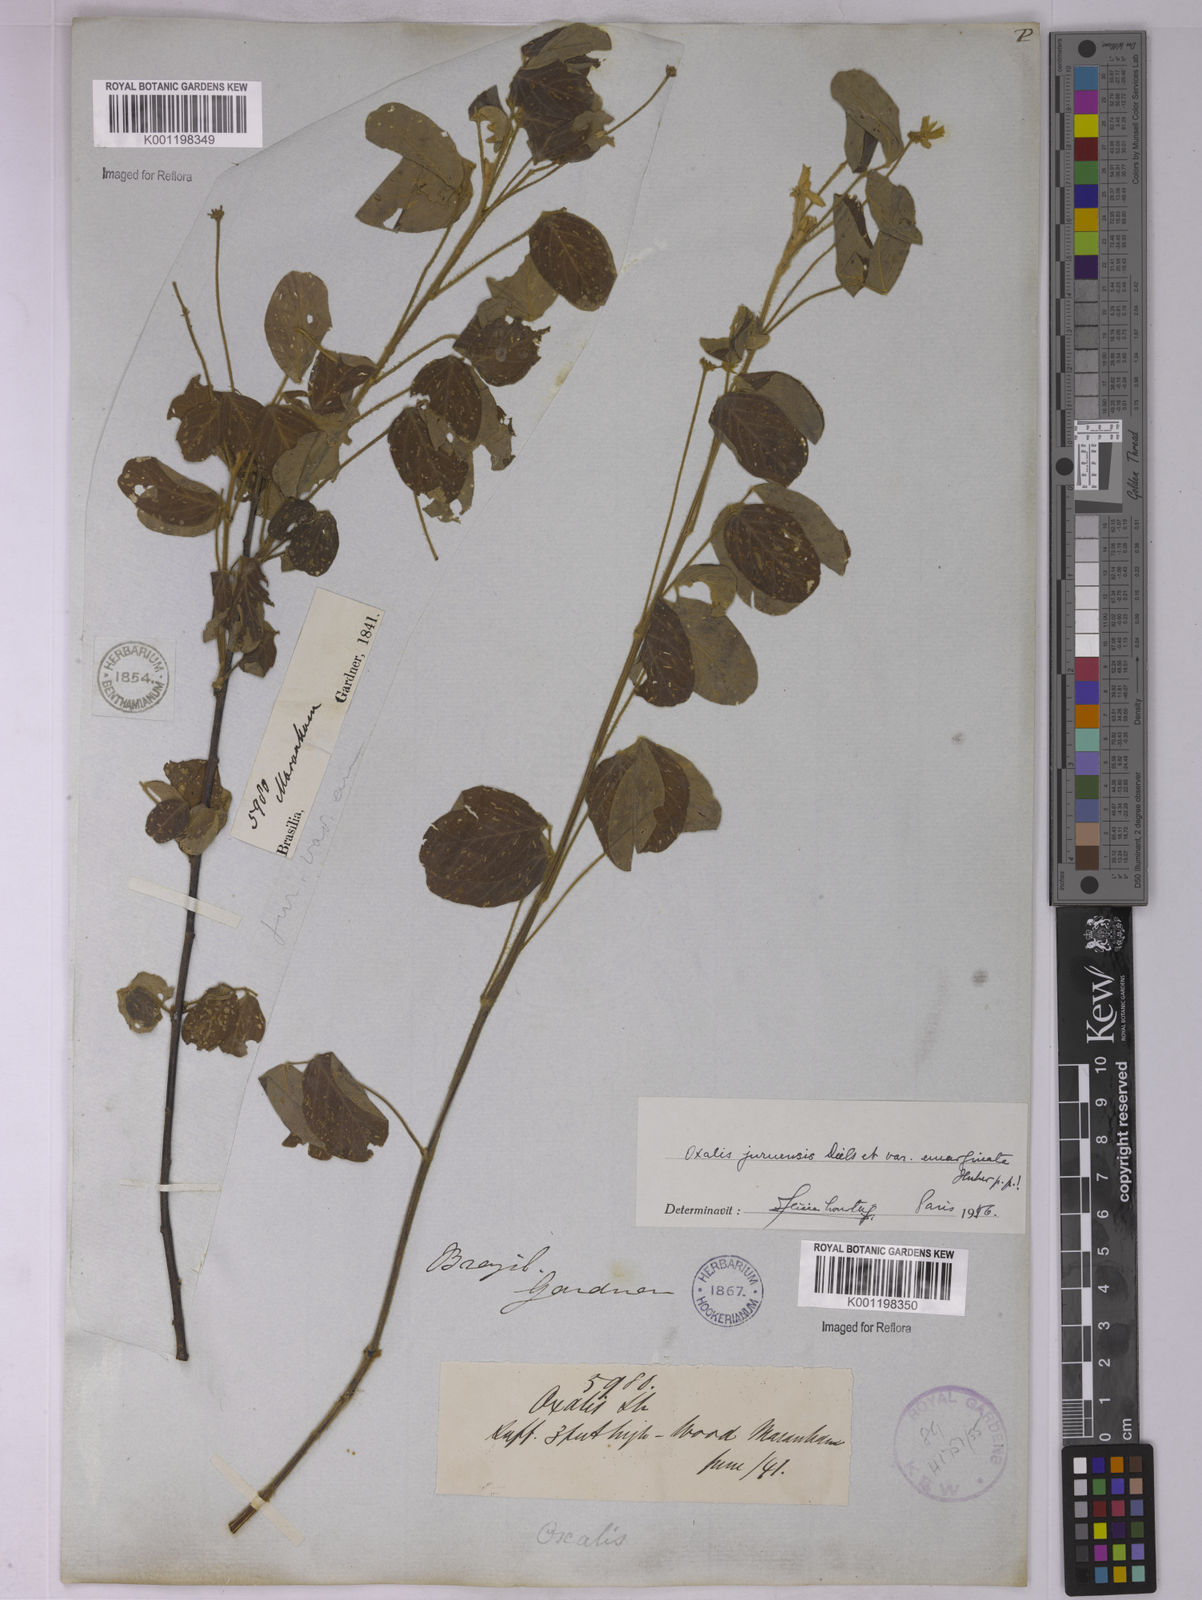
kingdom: Plantae
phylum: Tracheophyta
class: Magnoliopsida
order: Oxalidales
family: Oxalidaceae
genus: Oxalis
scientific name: Oxalis juruensis
